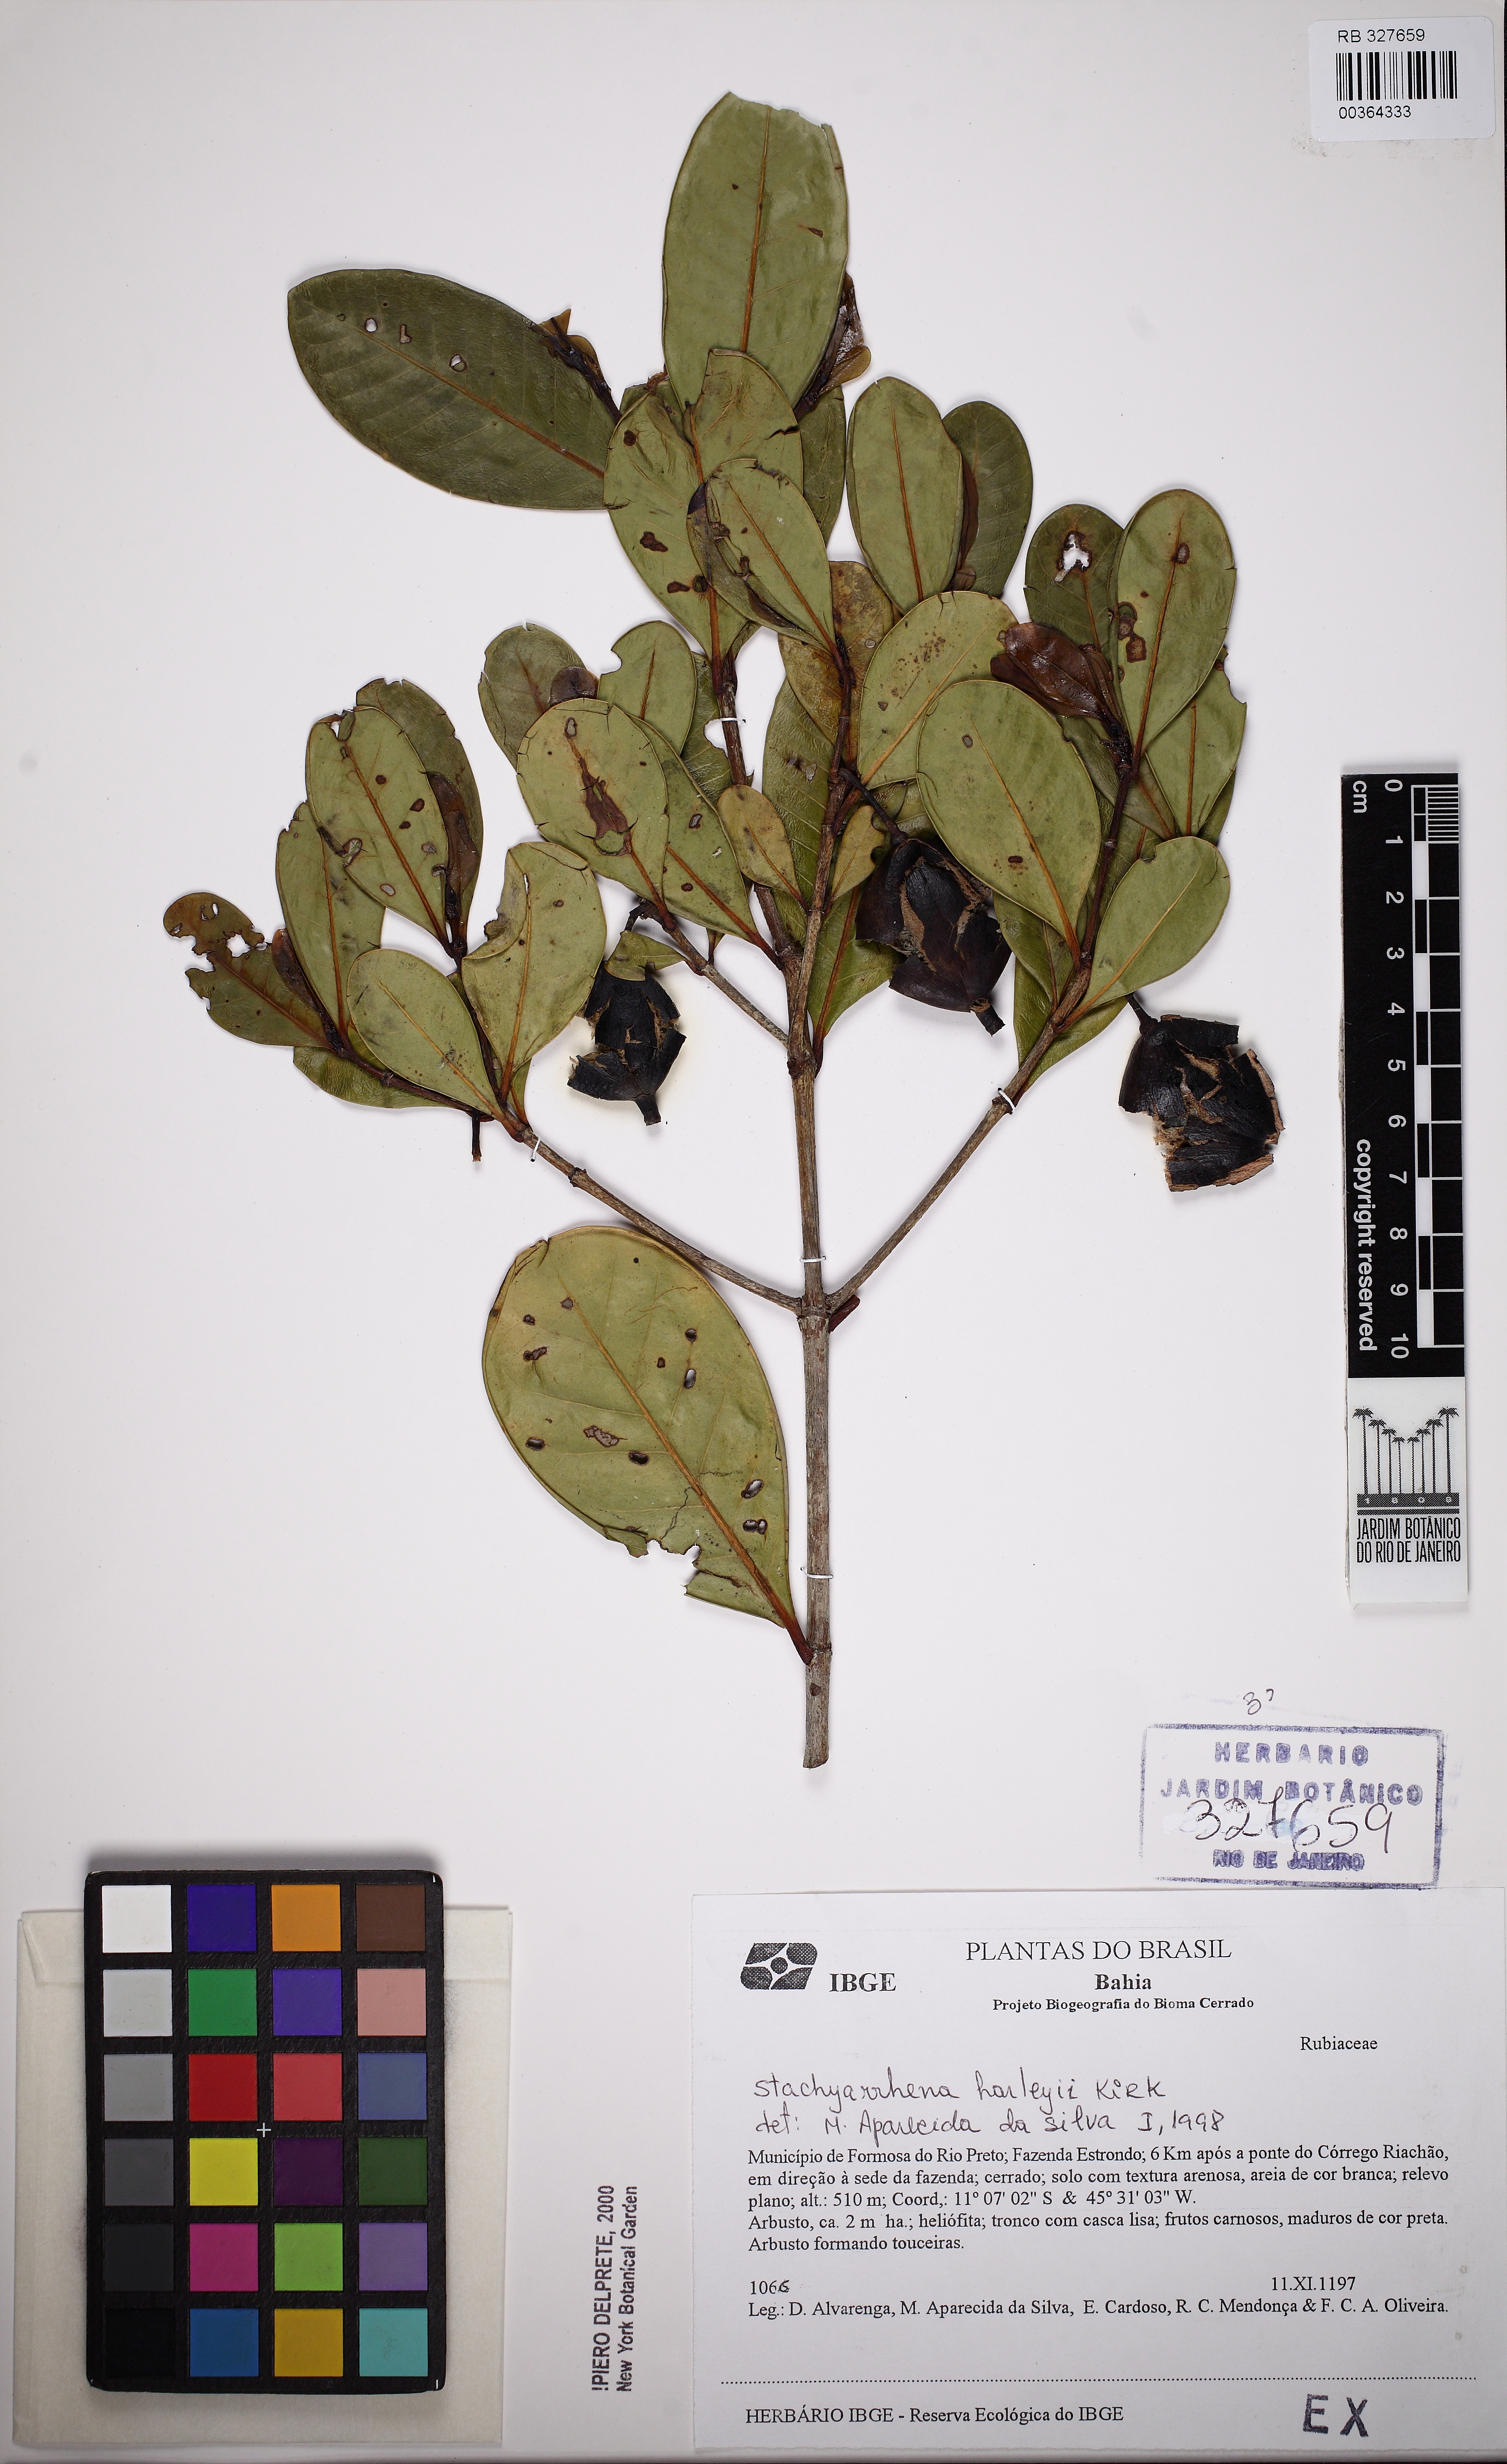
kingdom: Plantae
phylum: Tracheophyta
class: Magnoliopsida
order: Gentianales
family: Rubiaceae
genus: Stachyarrhena
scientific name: Stachyarrhena harleyi
